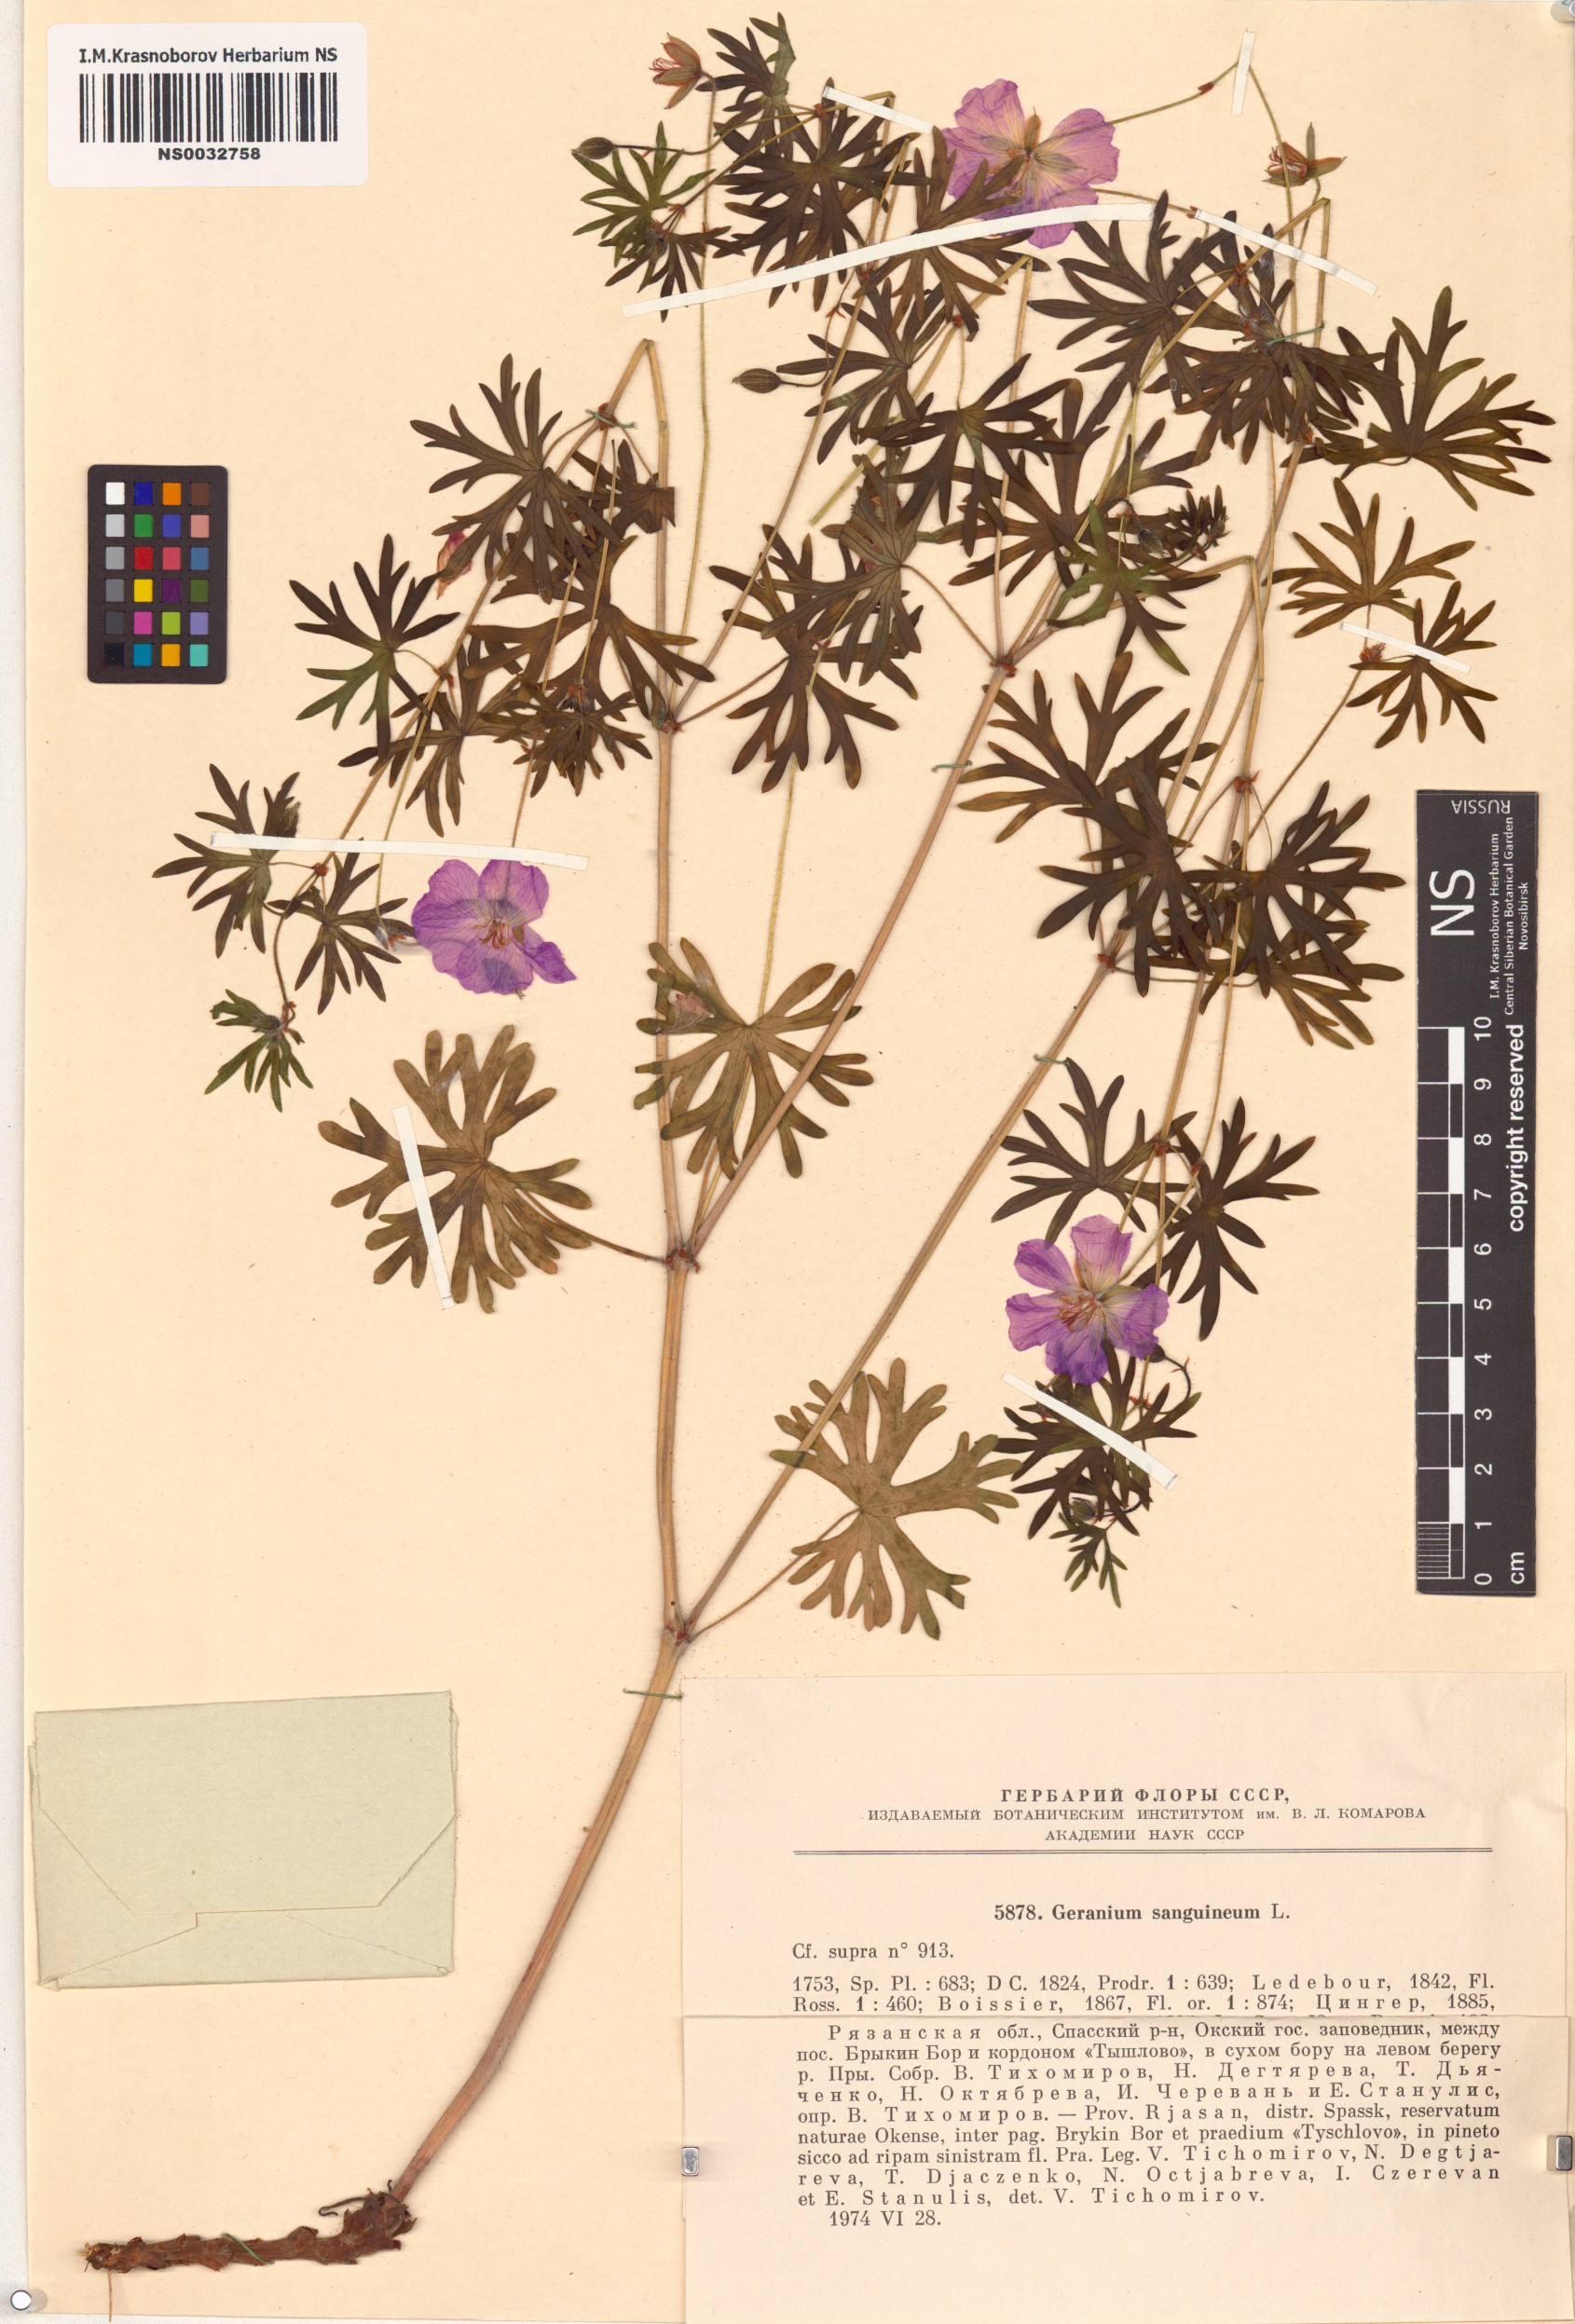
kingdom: Plantae
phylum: Tracheophyta
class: Magnoliopsida
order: Geraniales
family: Geraniaceae
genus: Geranium
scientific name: Geranium sanguineum
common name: Bloody crane's-bill
